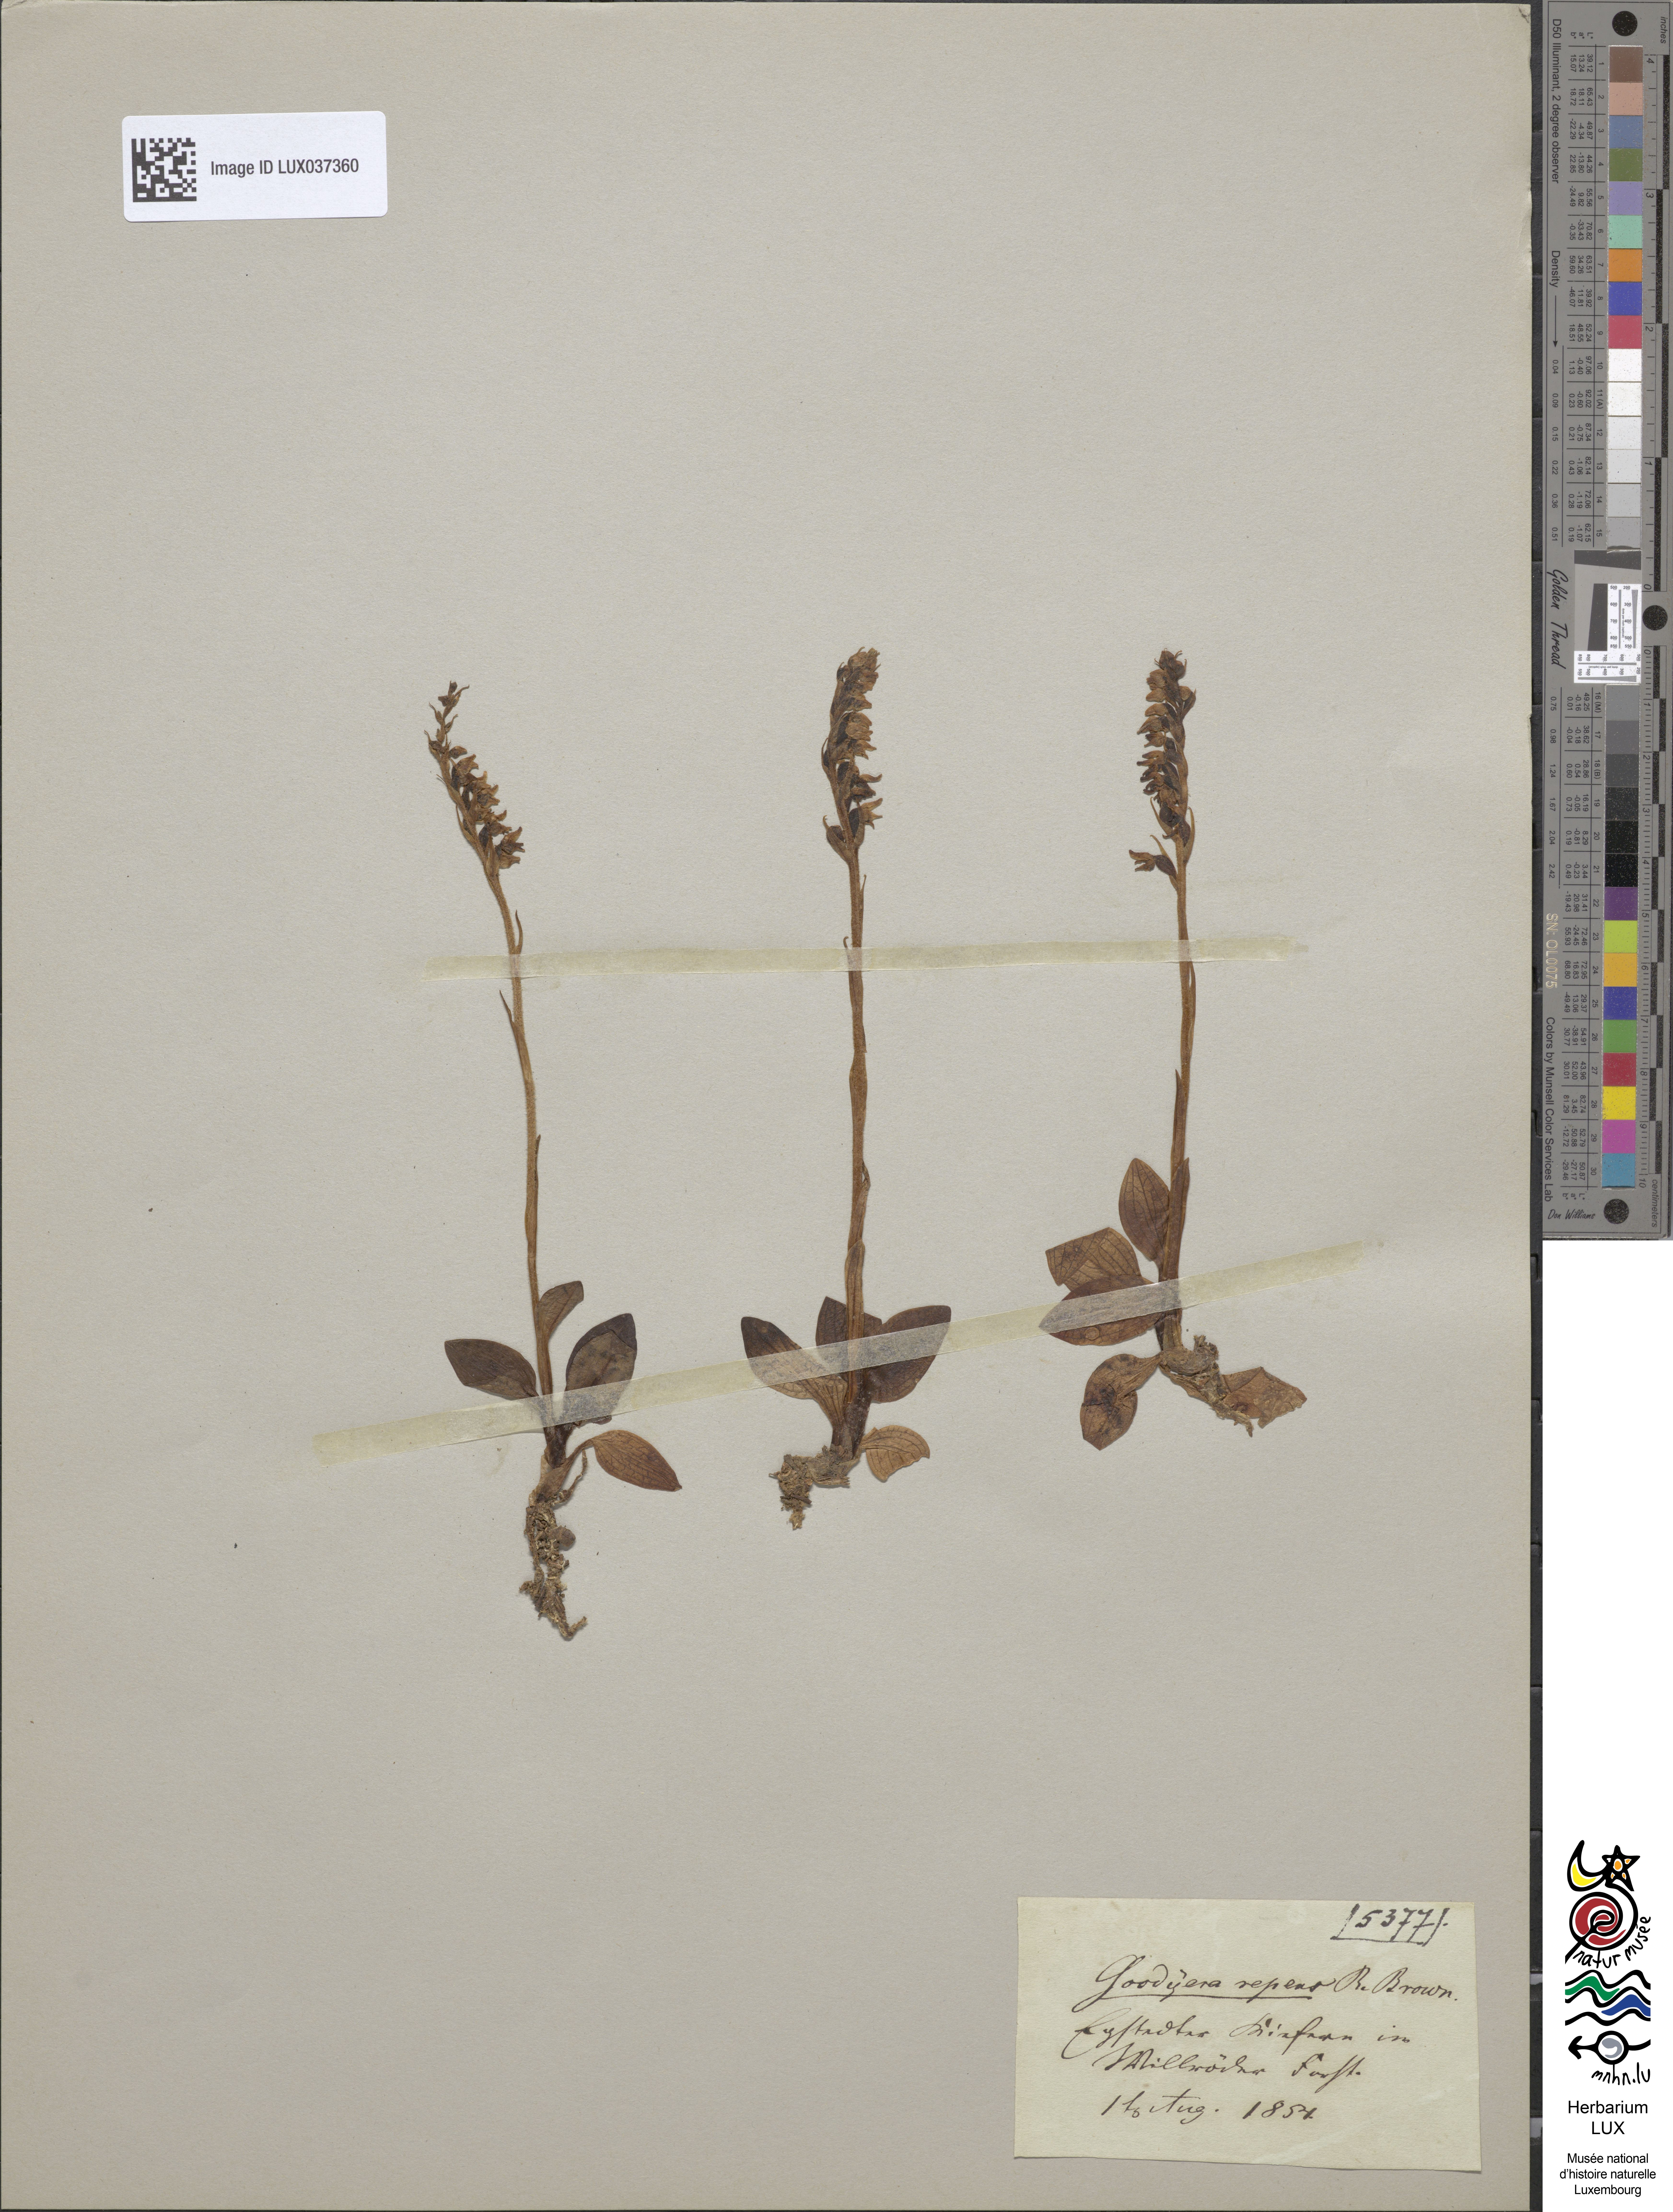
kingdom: Plantae
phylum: Tracheophyta
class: Liliopsida
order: Asparagales
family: Orchidaceae
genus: Goodyera
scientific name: Goodyera repens
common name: Creeping lady's-tresses
